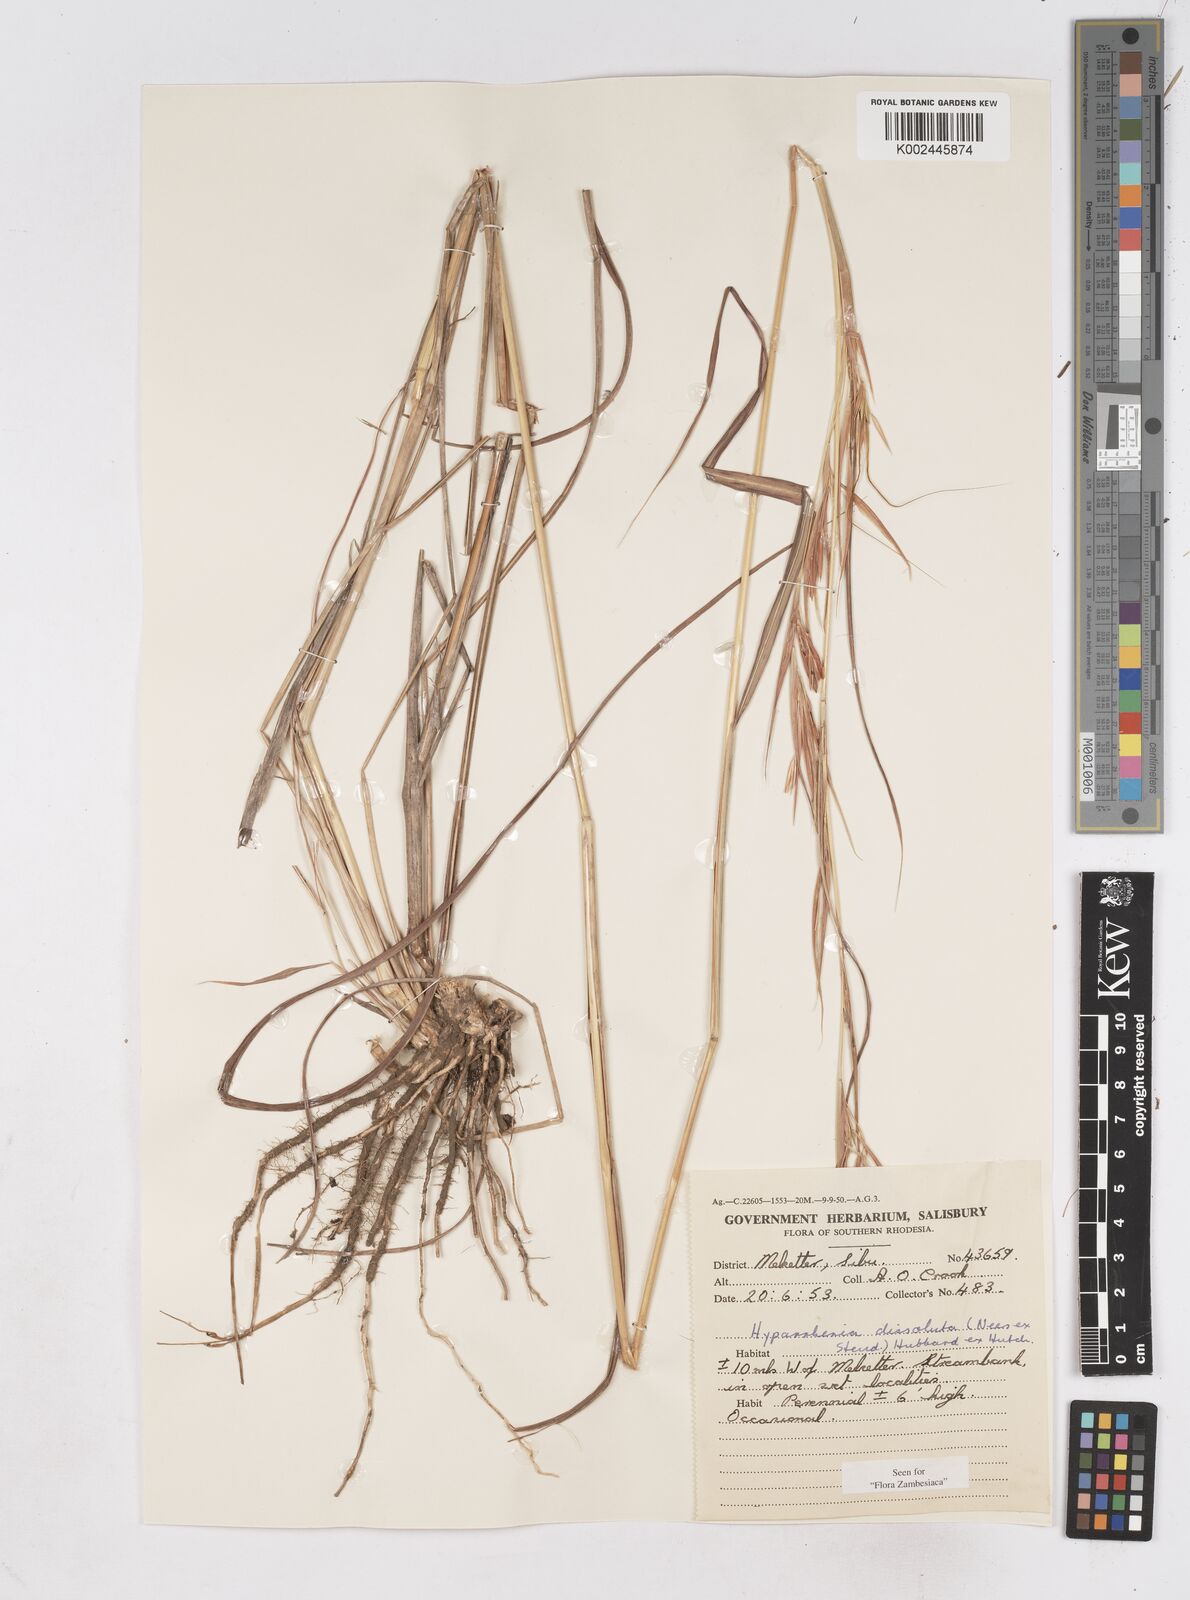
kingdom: Plantae
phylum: Tracheophyta
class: Liliopsida
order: Poales
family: Poaceae
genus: Hyperthelia
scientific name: Hyperthelia dissoluta
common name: Yellow thatching grass
